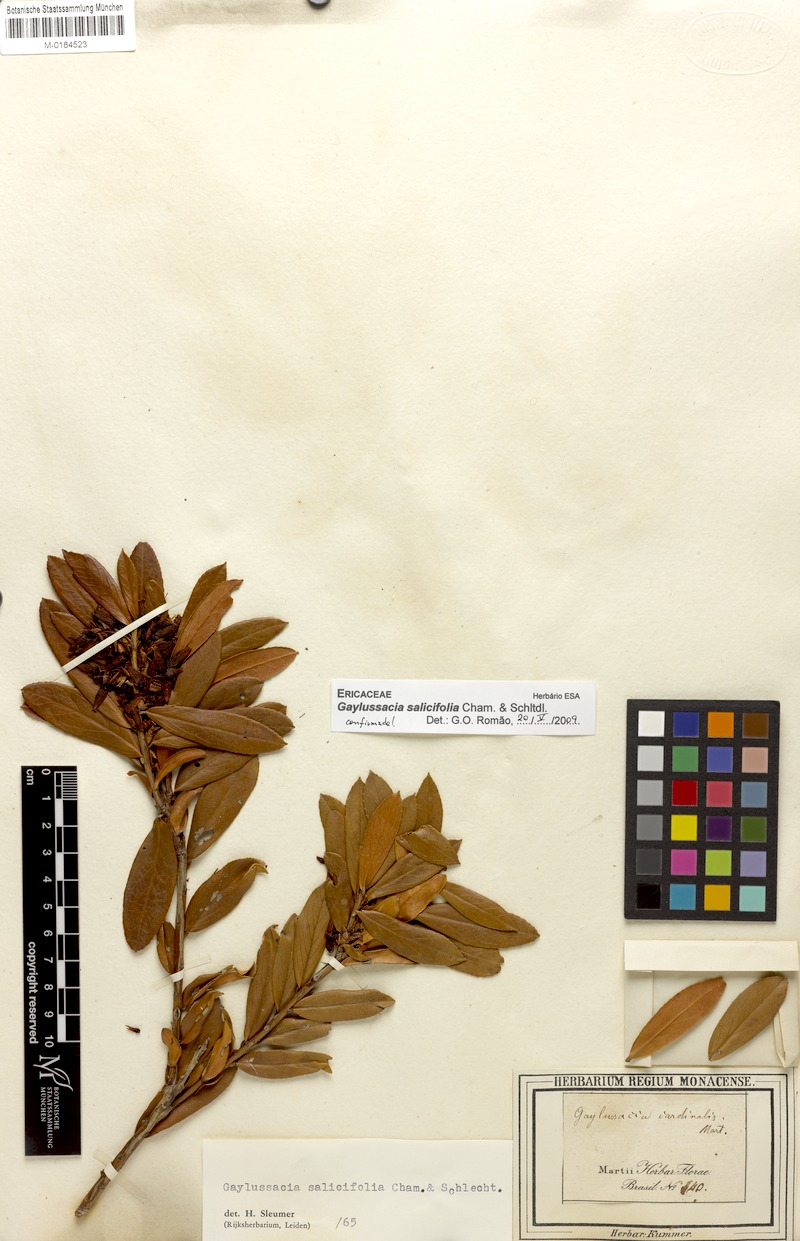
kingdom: Plantae
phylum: Tracheophyta
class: Magnoliopsida
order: Ericales
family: Ericaceae
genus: Gaylussacia
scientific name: Gaylussacia salicifolia
